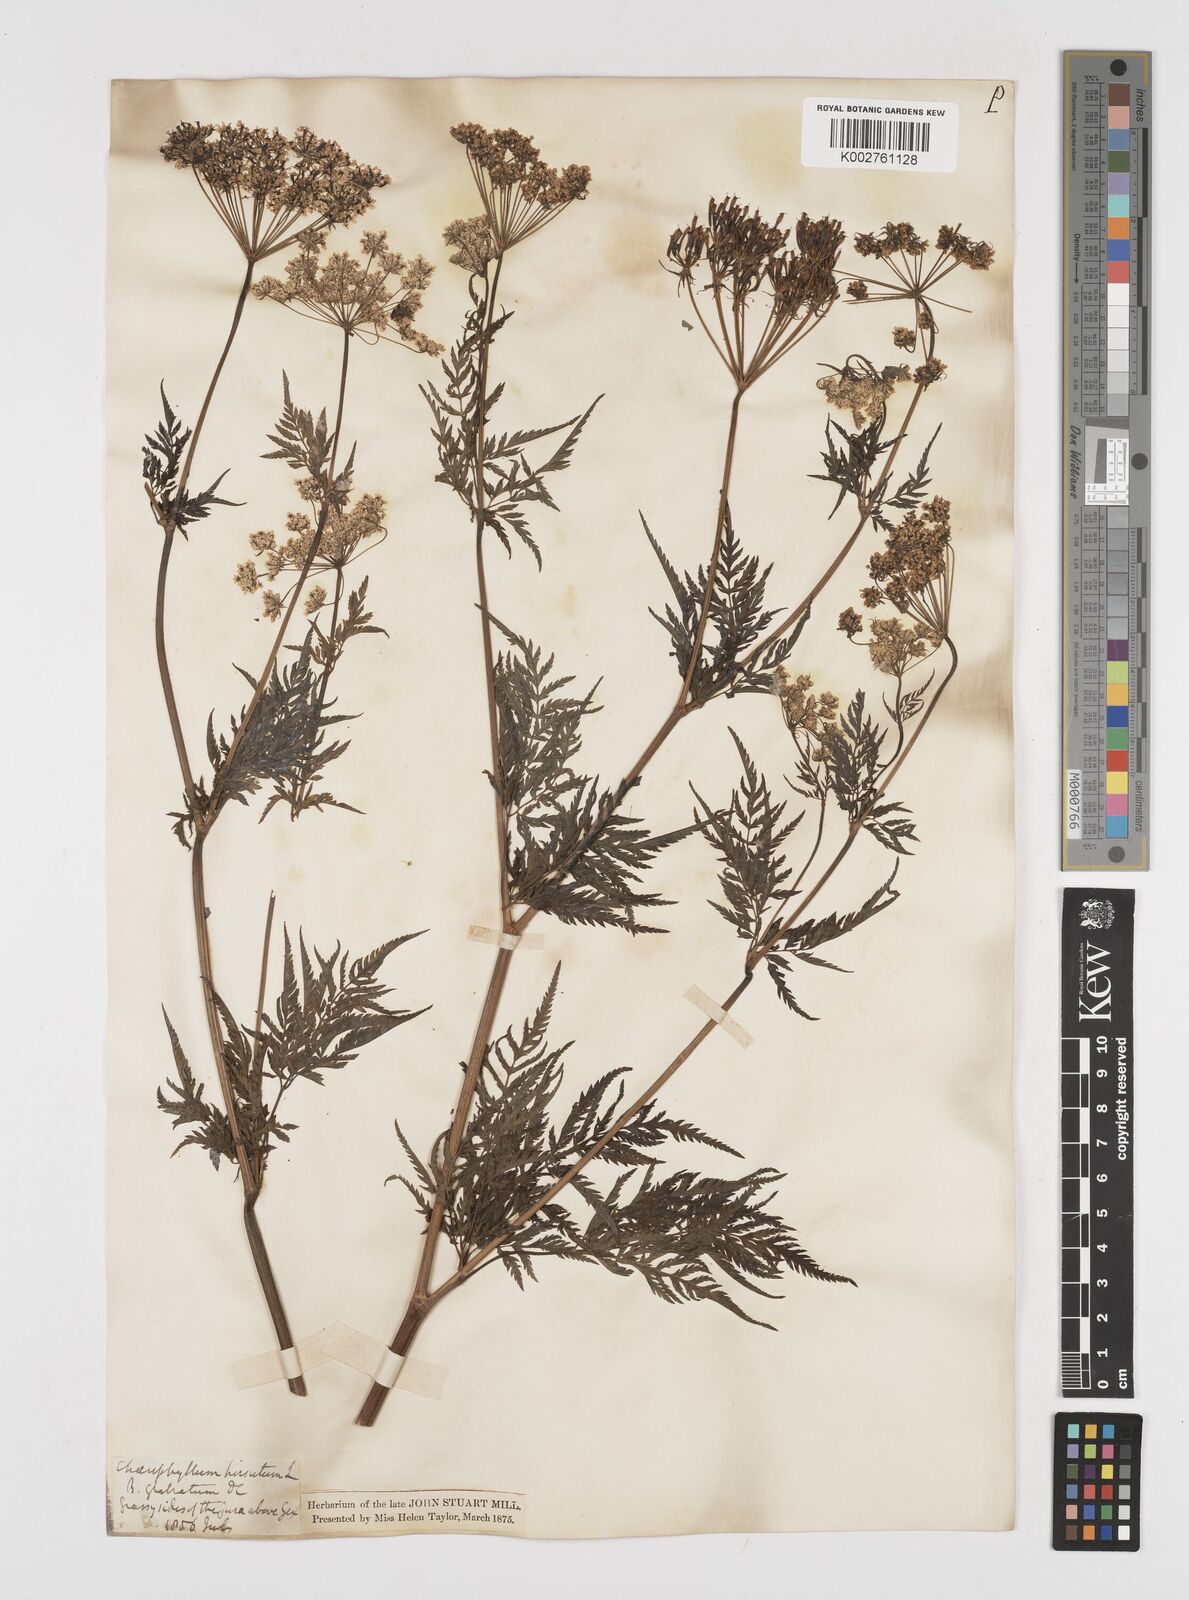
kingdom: Plantae
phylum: Tracheophyta
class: Magnoliopsida
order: Apiales
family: Apiaceae
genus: Chaerophyllum
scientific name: Chaerophyllum hirsutum
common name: Hairy chervil
